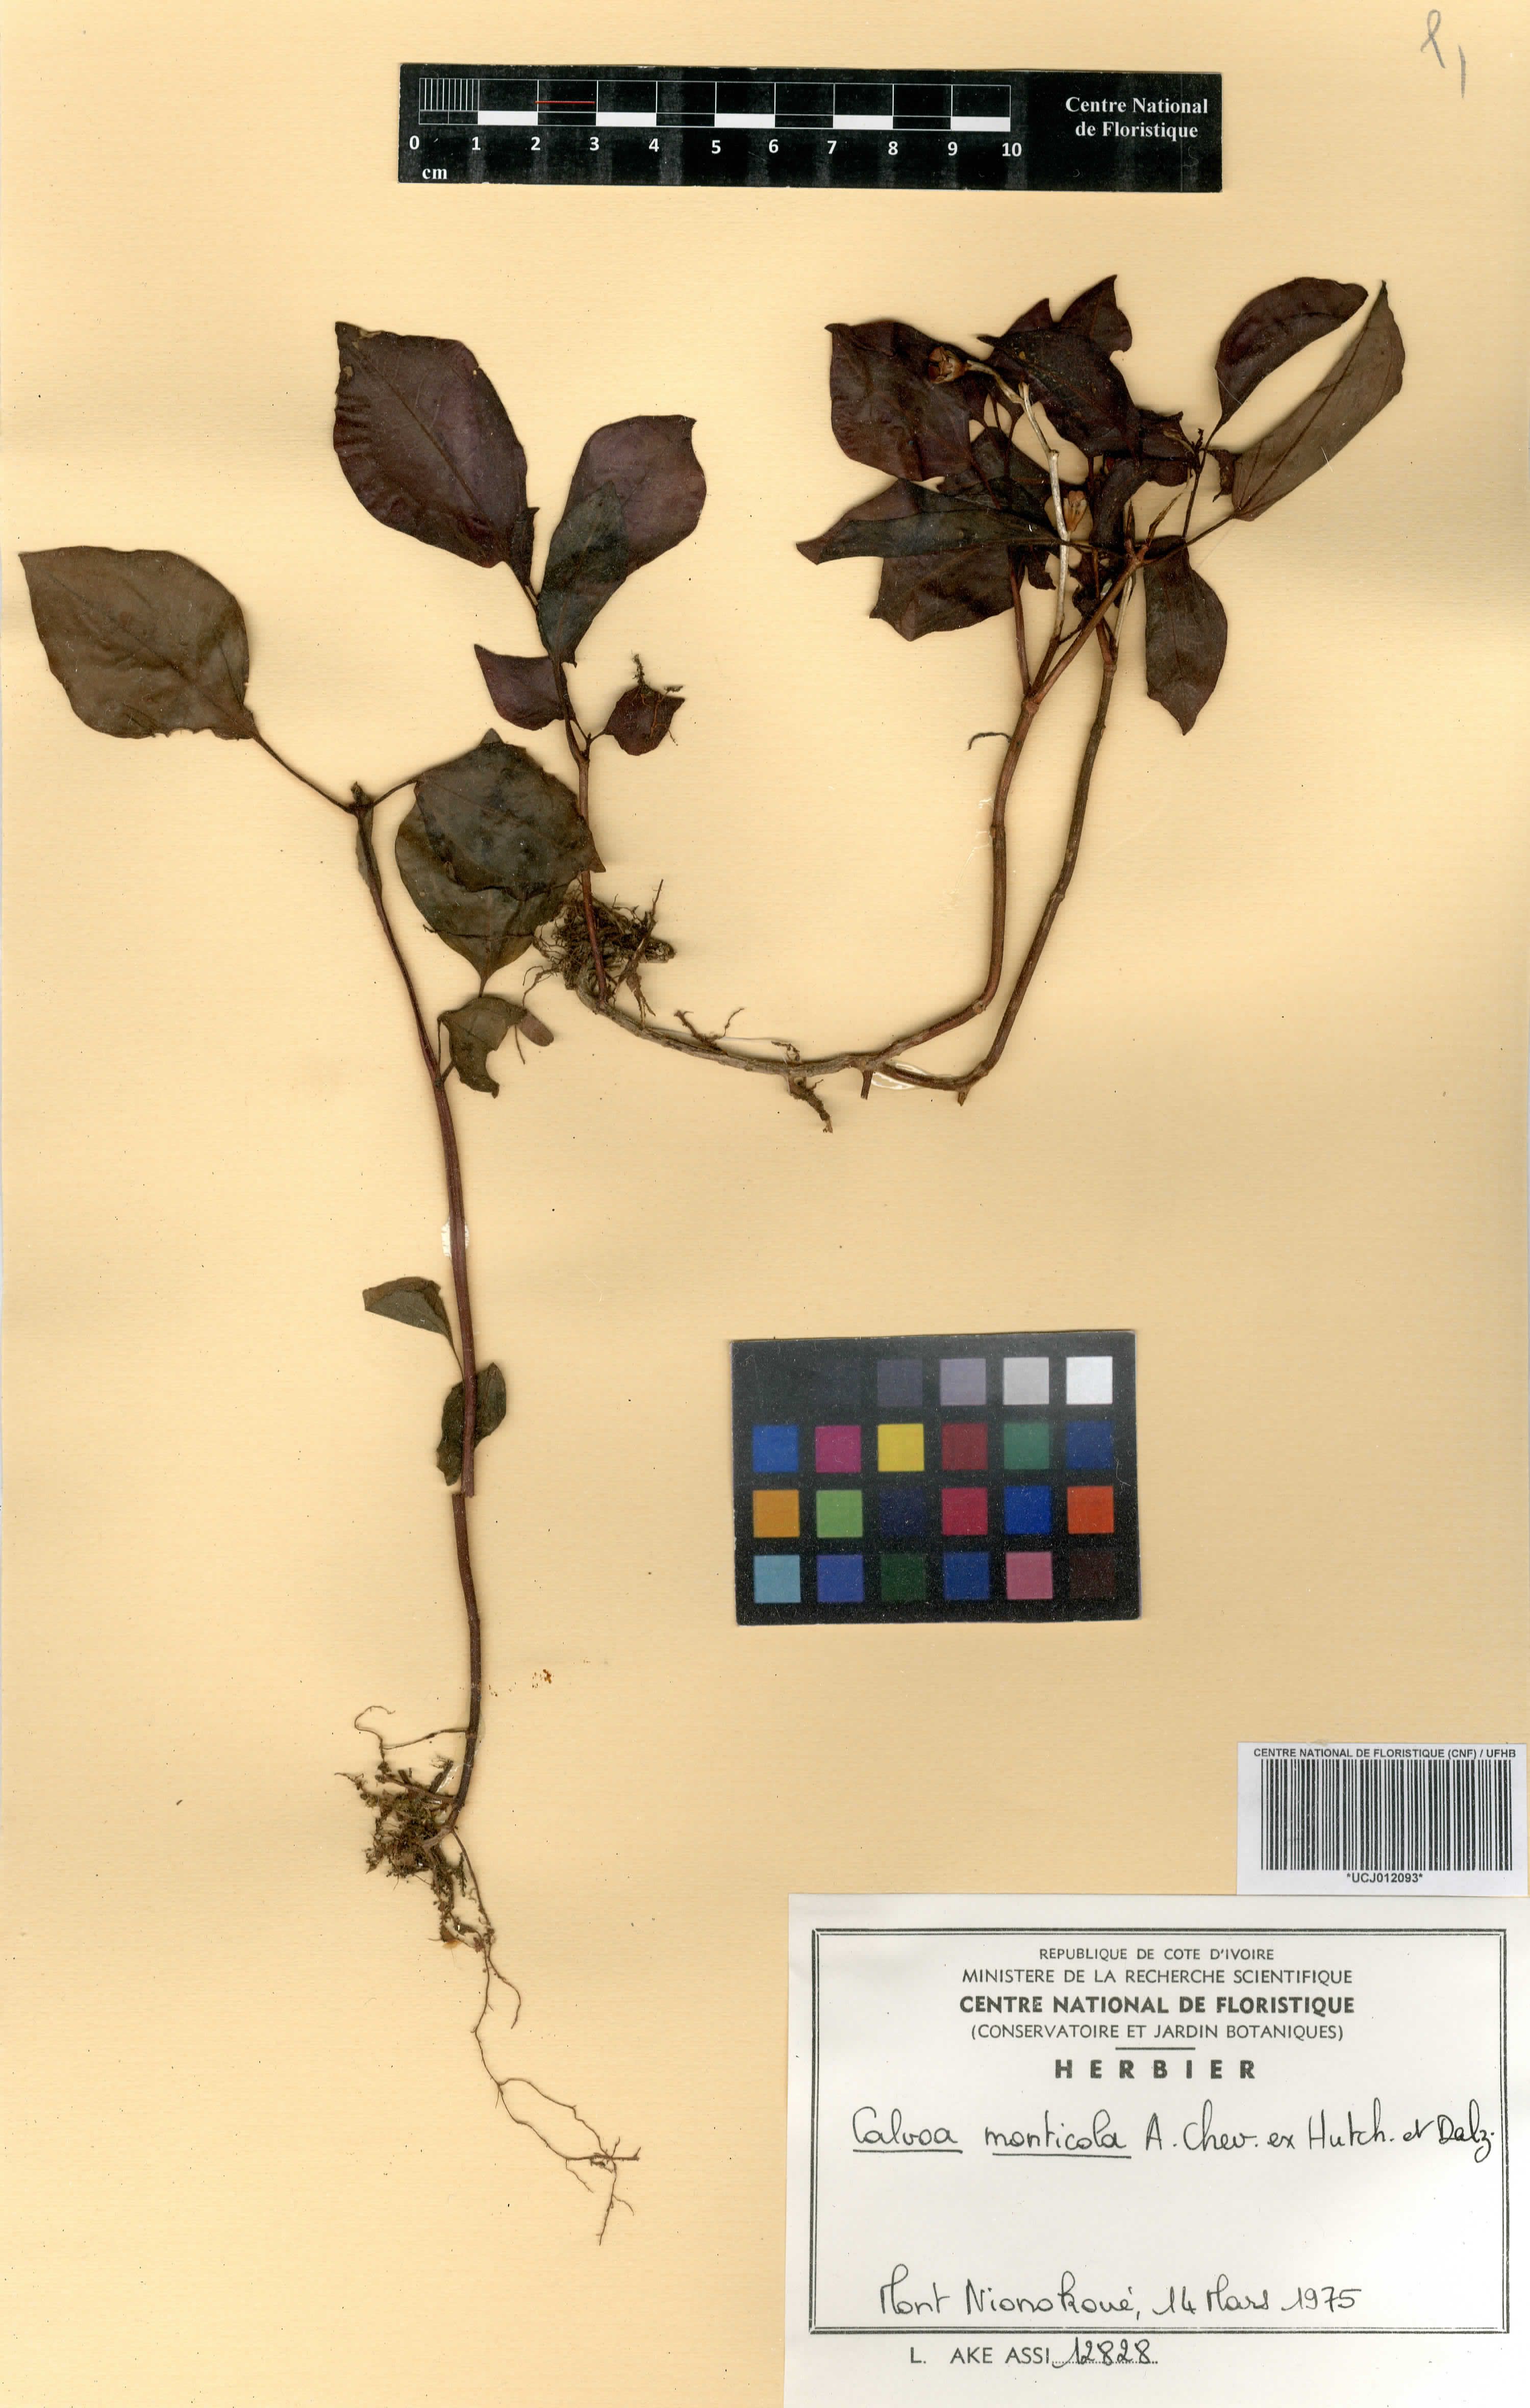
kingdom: Plantae
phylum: Tracheophyta
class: Magnoliopsida
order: Myrtales
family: Melastomataceae
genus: Calvoa
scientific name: Calvoa monticola
